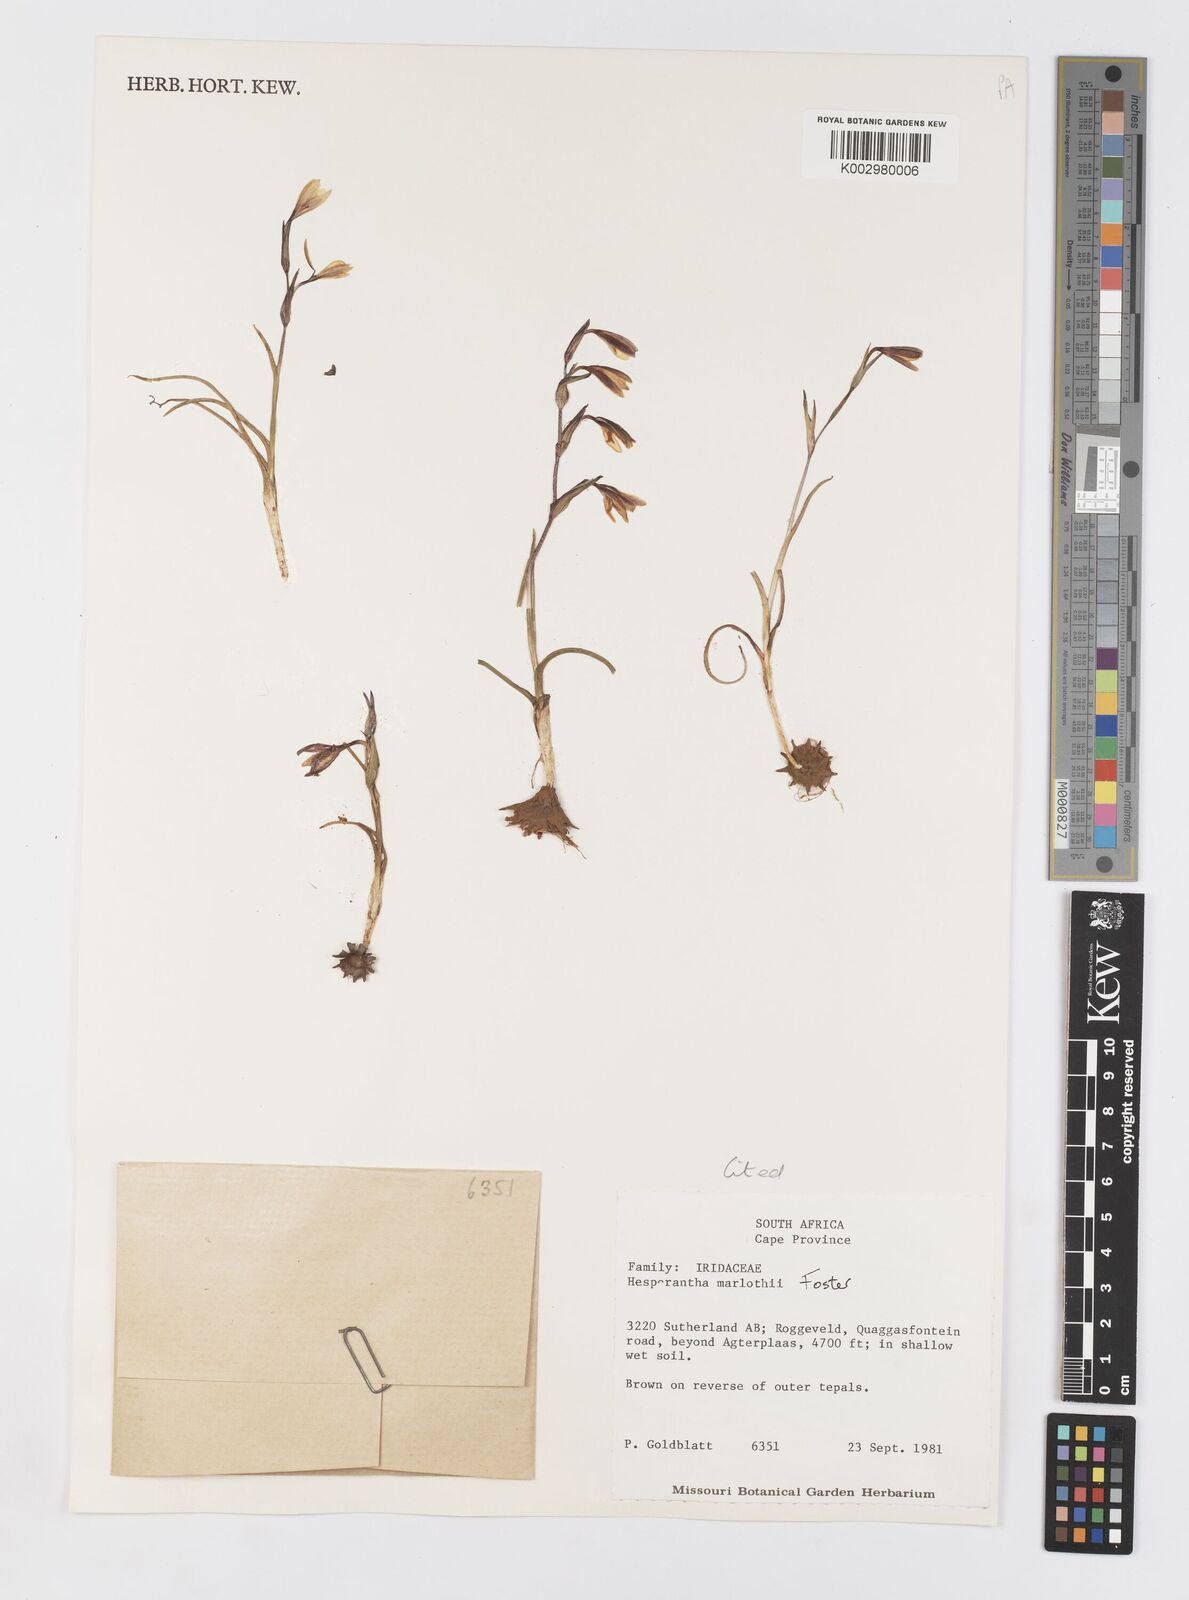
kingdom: Plantae
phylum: Tracheophyta
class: Liliopsida
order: Asparagales
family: Iridaceae
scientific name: Iridaceae
